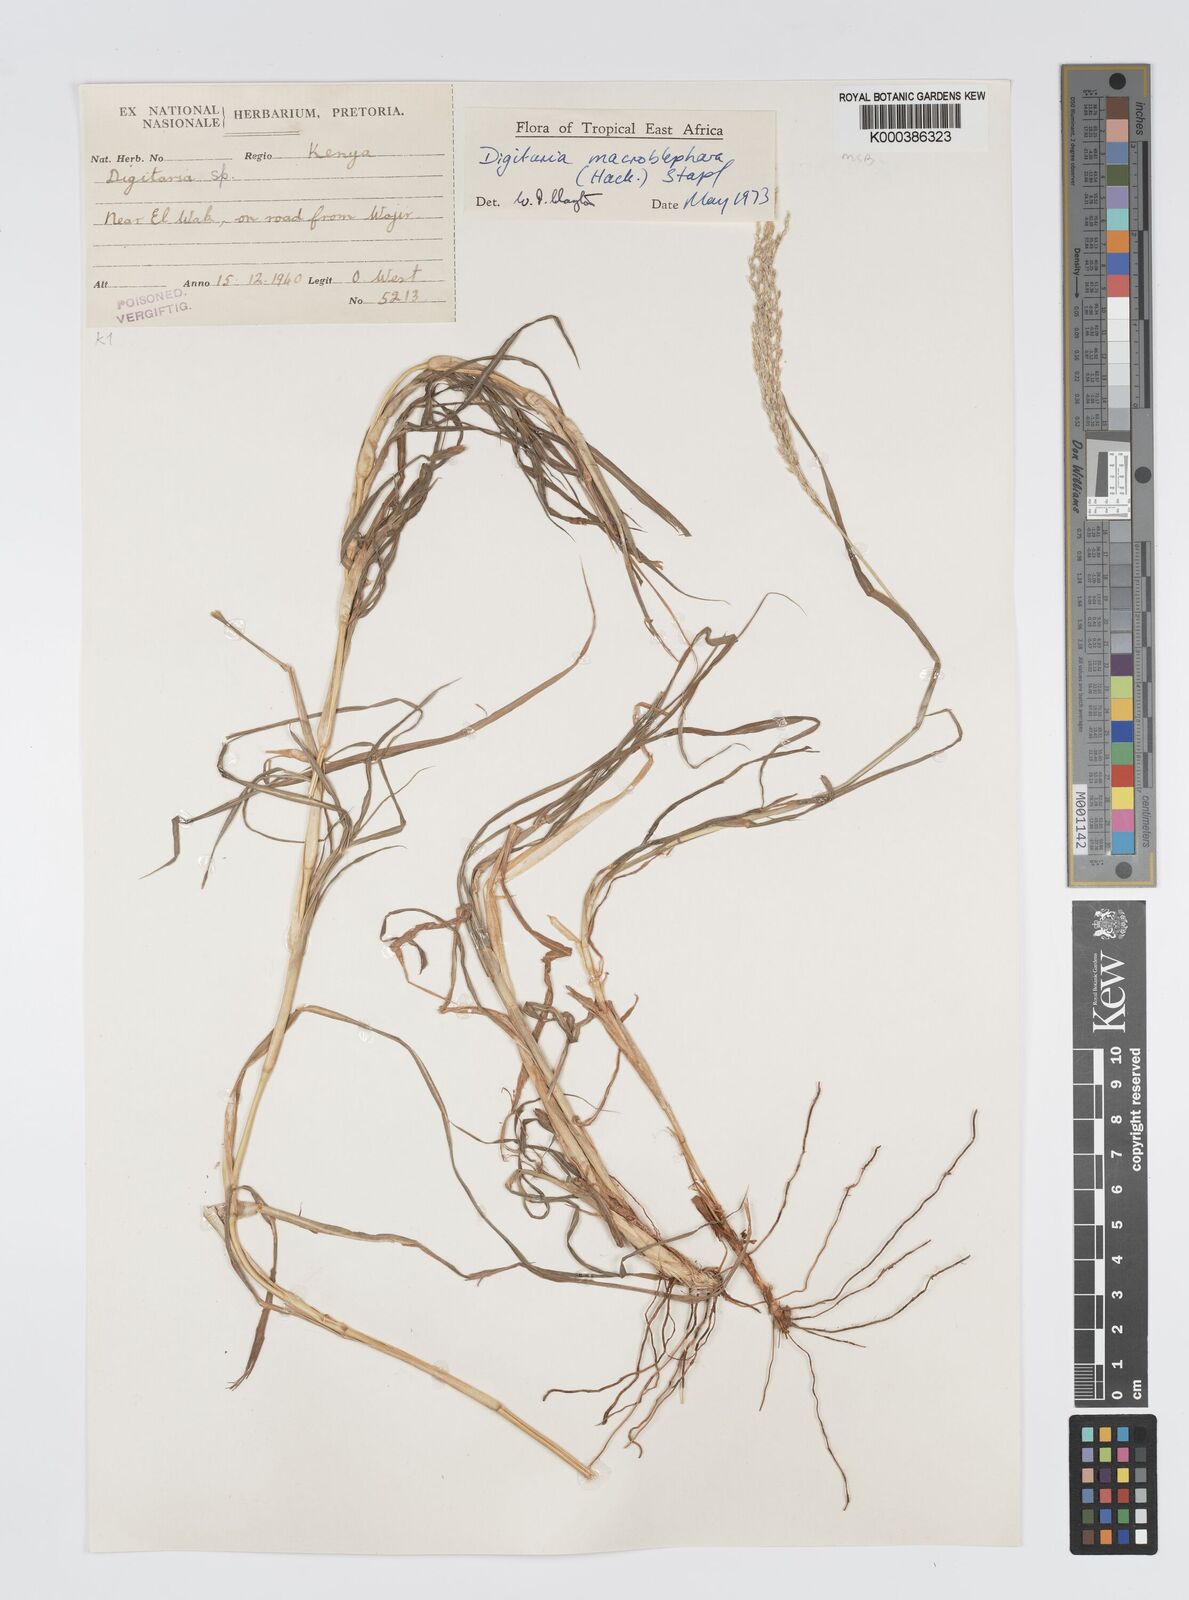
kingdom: Plantae
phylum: Tracheophyta
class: Liliopsida
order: Poales
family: Poaceae
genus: Digitaria
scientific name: Digitaria macroblephara
